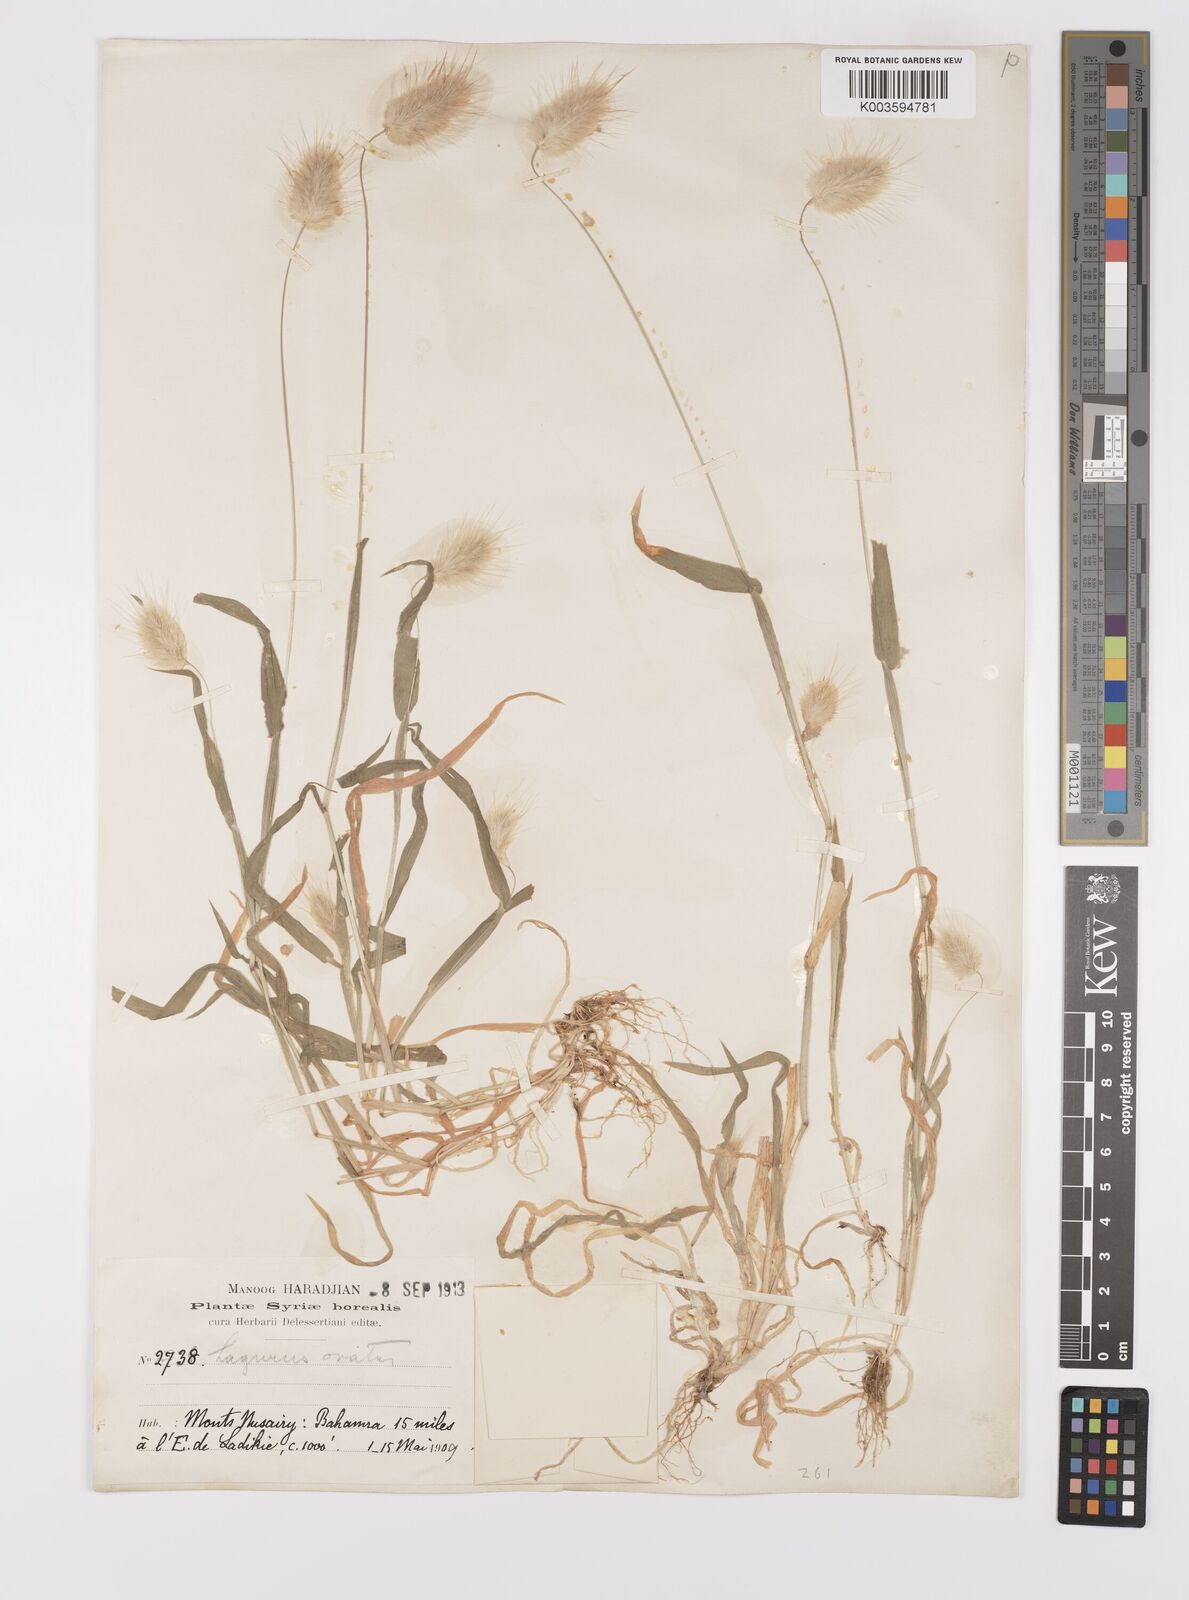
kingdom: Plantae
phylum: Tracheophyta
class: Liliopsida
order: Poales
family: Poaceae
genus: Lagurus
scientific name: Lagurus ovatus
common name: Hare's-tail
